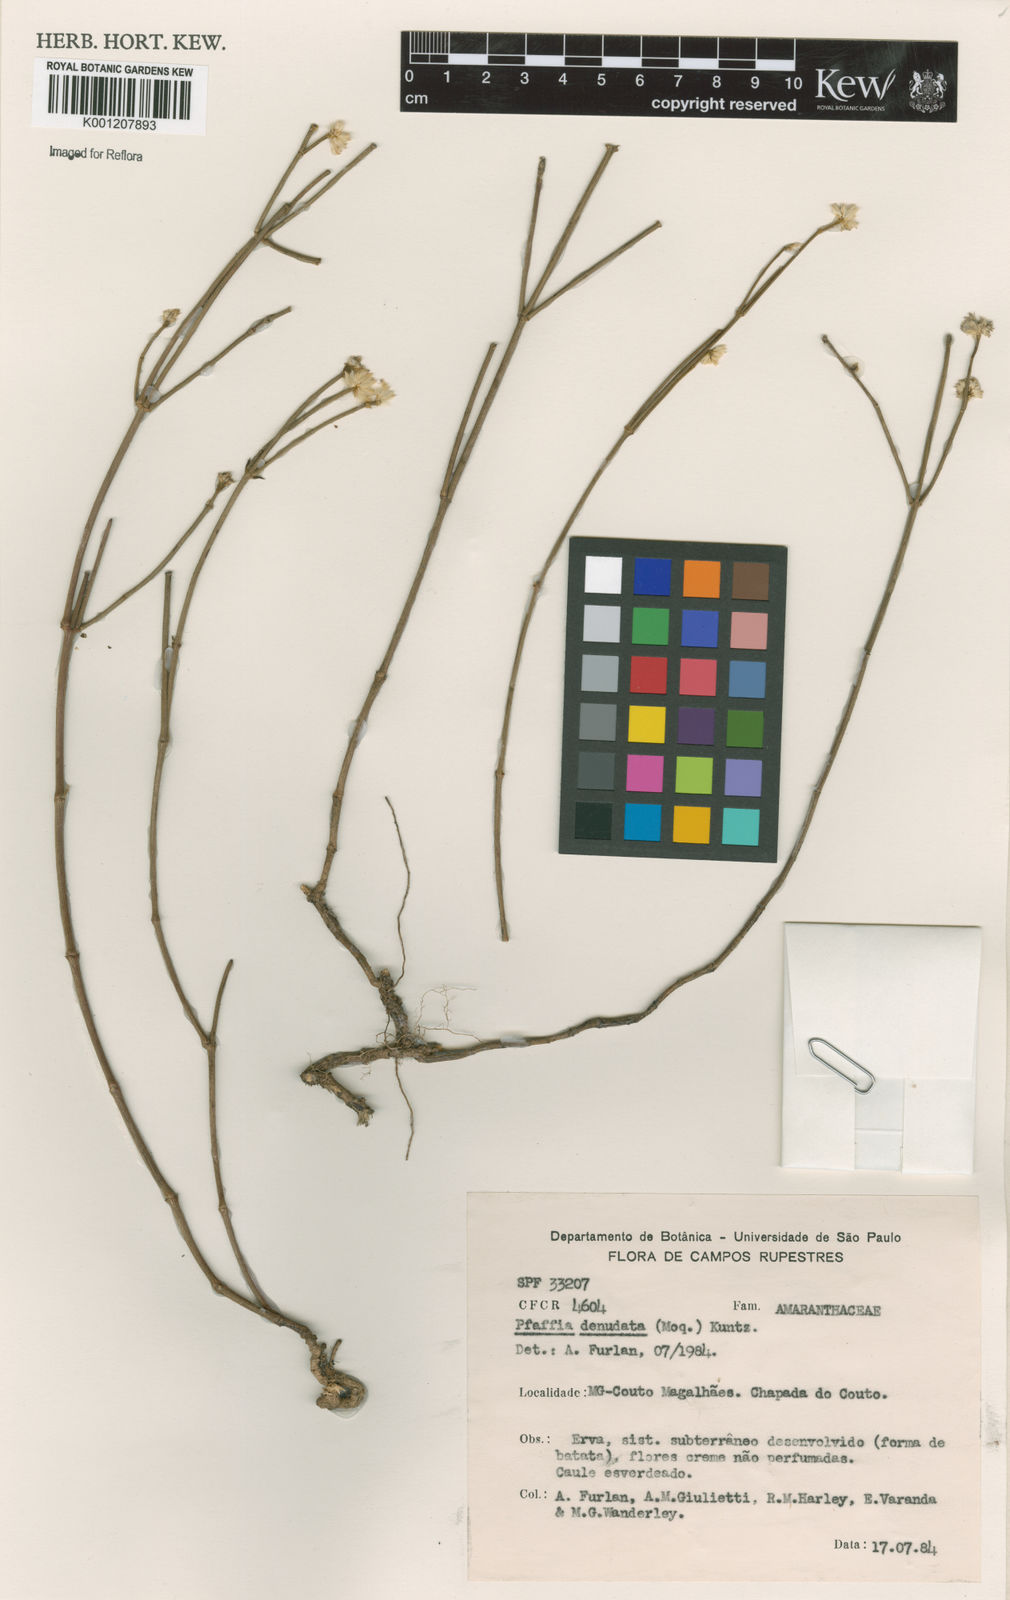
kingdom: Plantae
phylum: Tracheophyta
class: Magnoliopsida
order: Caryophyllales
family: Amaranthaceae
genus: Pfaffia
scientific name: Pfaffia denudata
